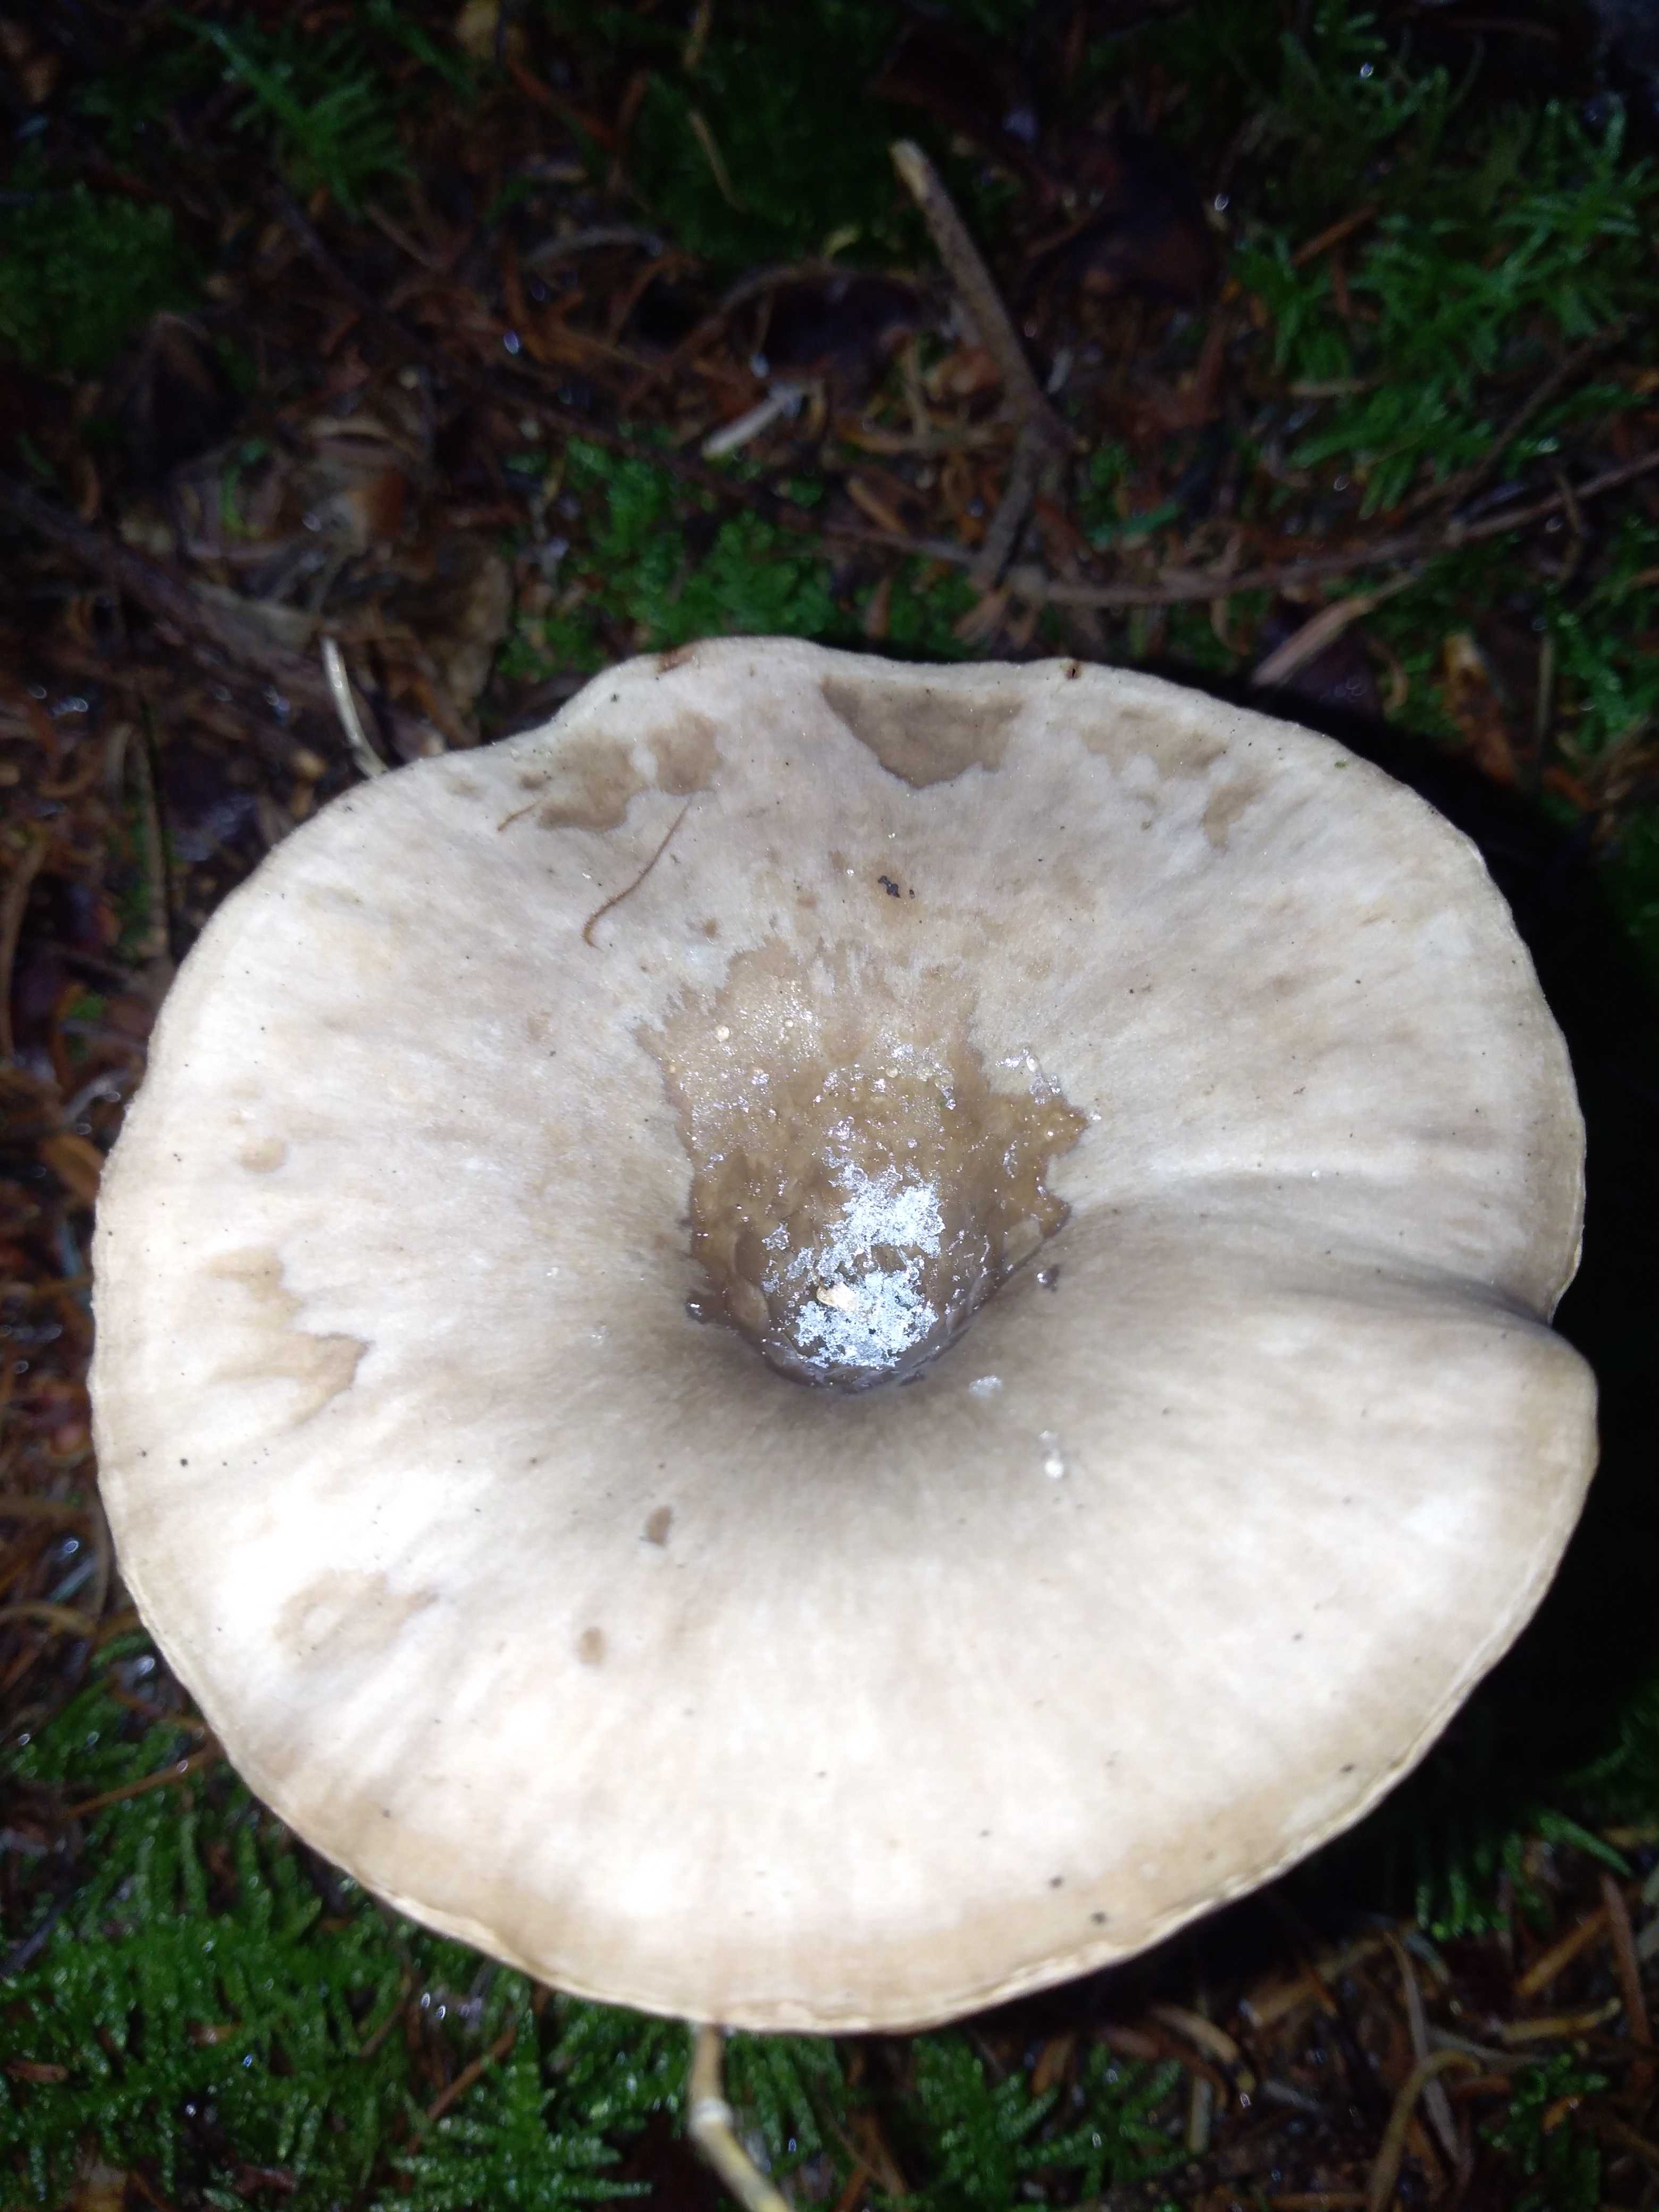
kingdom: Fungi
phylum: Basidiomycota
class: Agaricomycetes
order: Agaricales
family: Pseudoclitocybaceae
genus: Pseudoclitocybe
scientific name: Pseudoclitocybe cyathiformis
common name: almindelig bægertragthat
